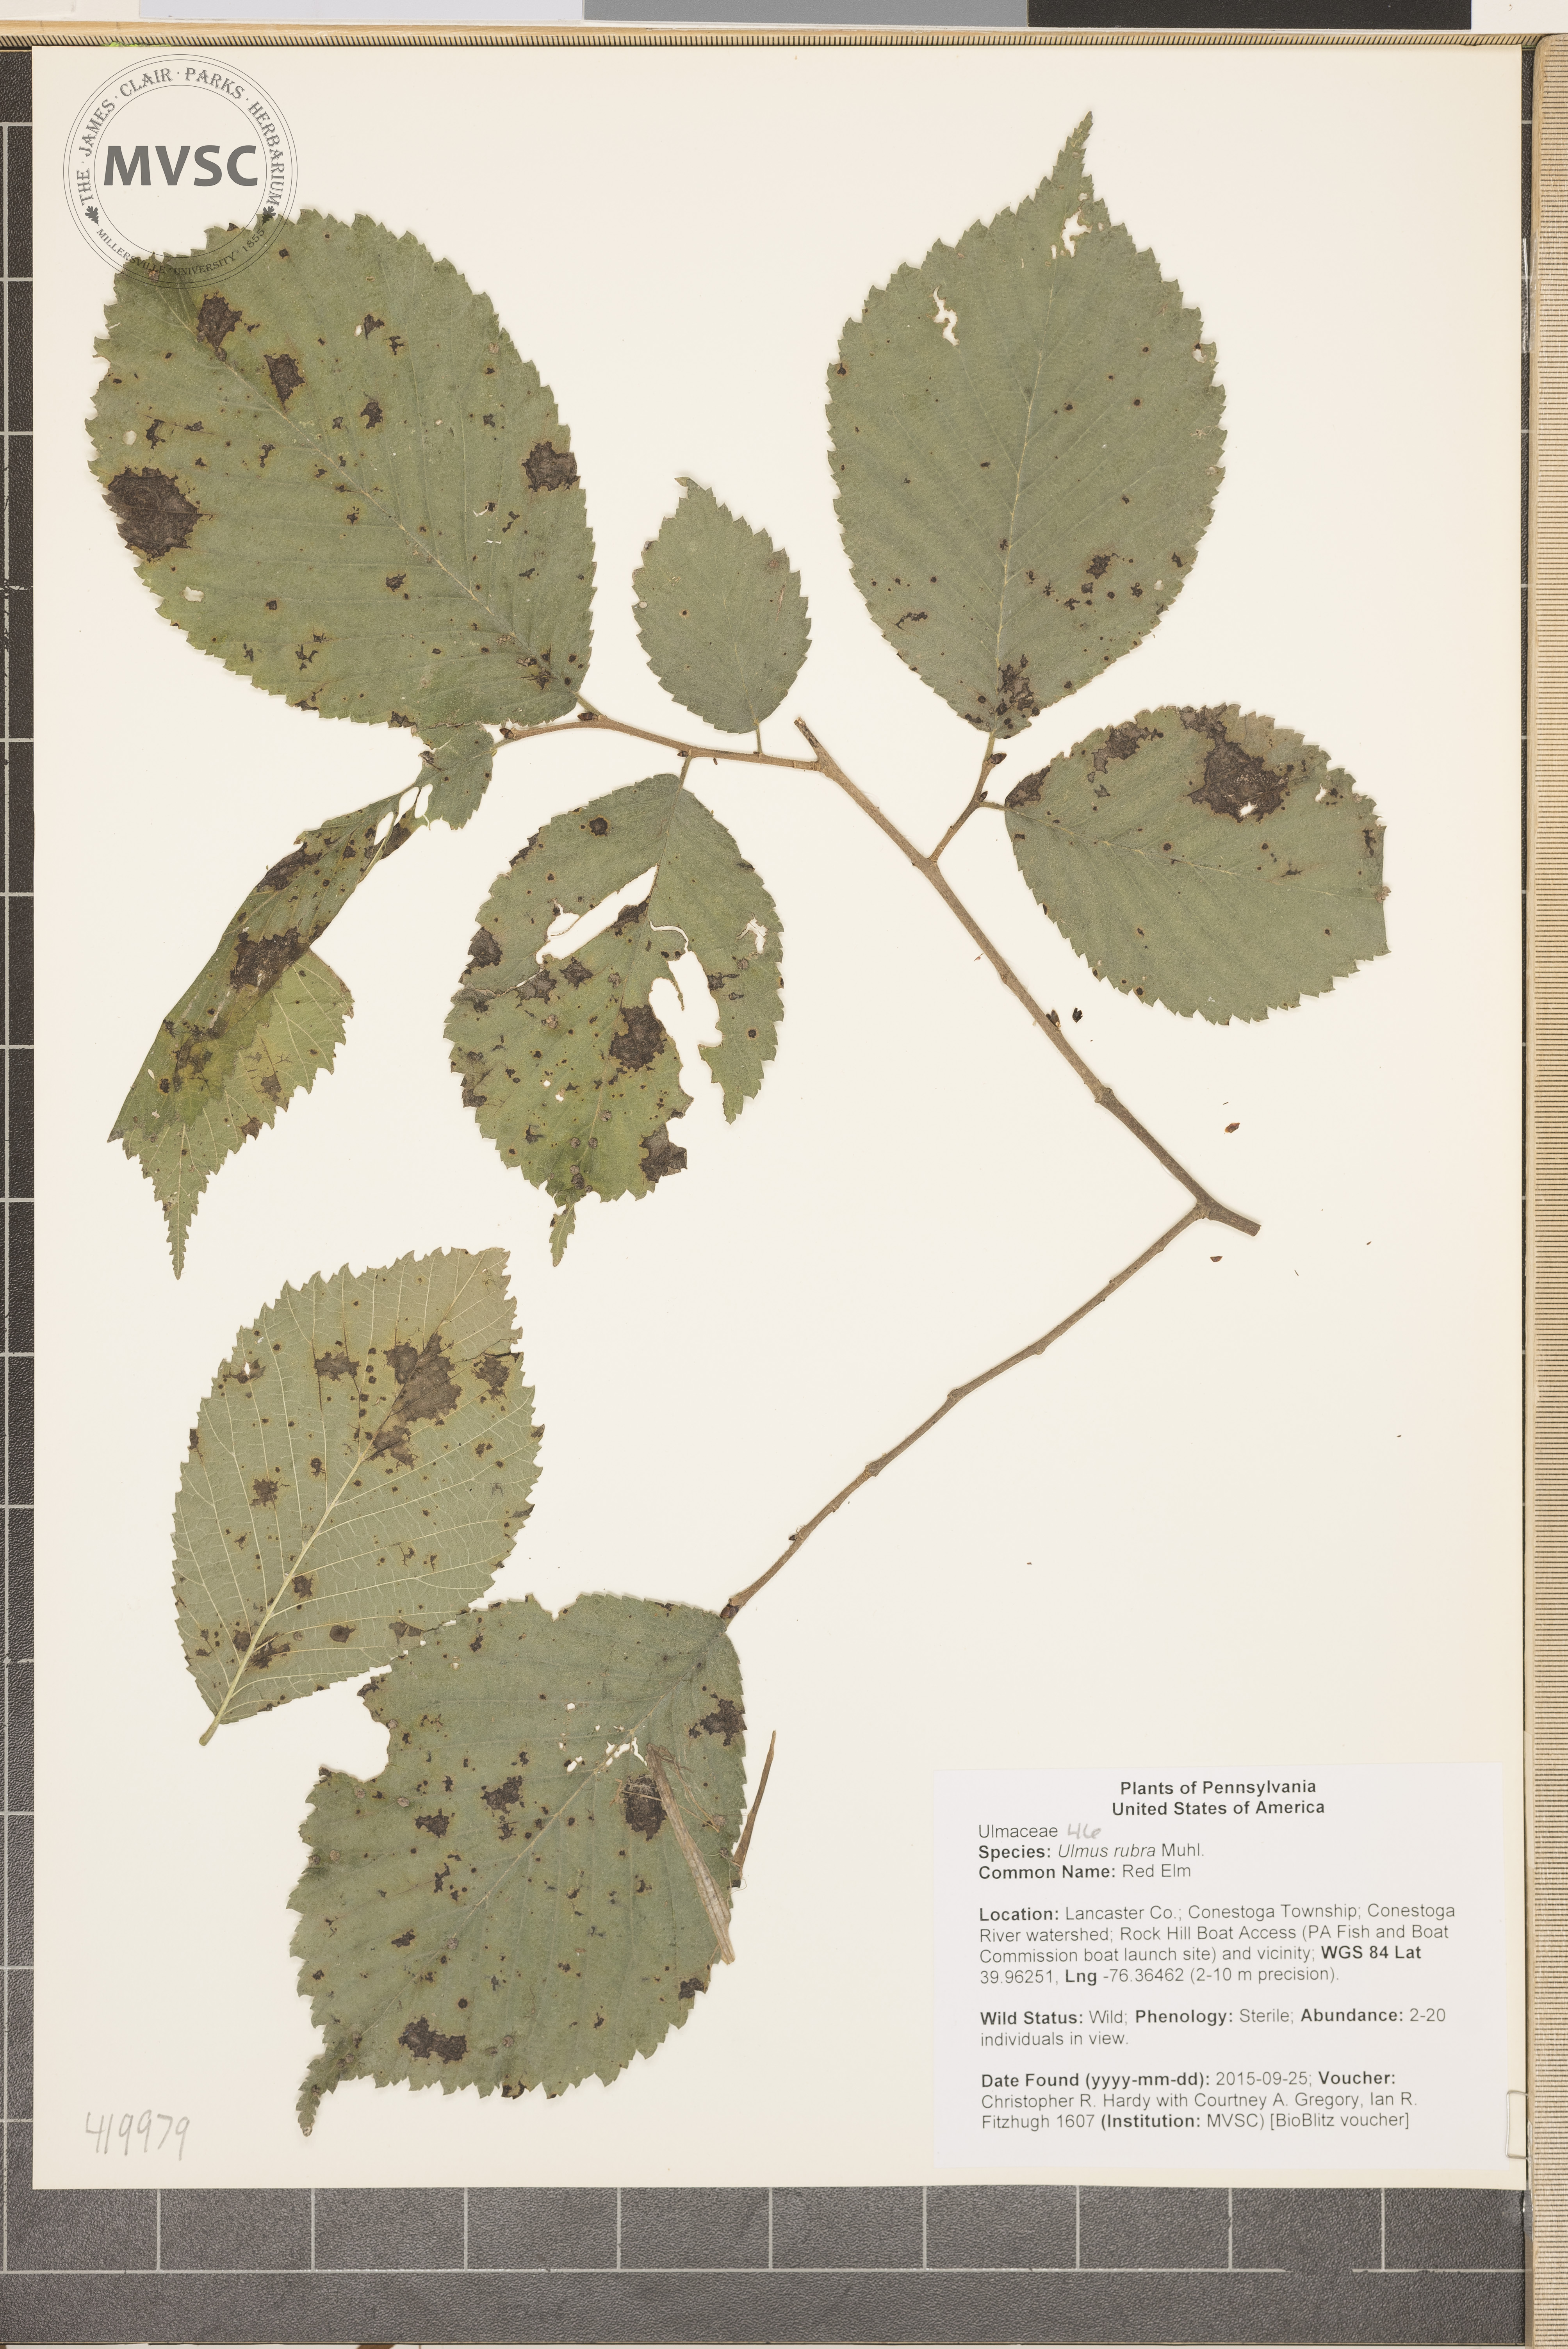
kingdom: Plantae
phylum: Tracheophyta
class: Magnoliopsida
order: Rosales
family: Ulmaceae
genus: Ulmus
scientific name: Ulmus rubra
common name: Red Elm
